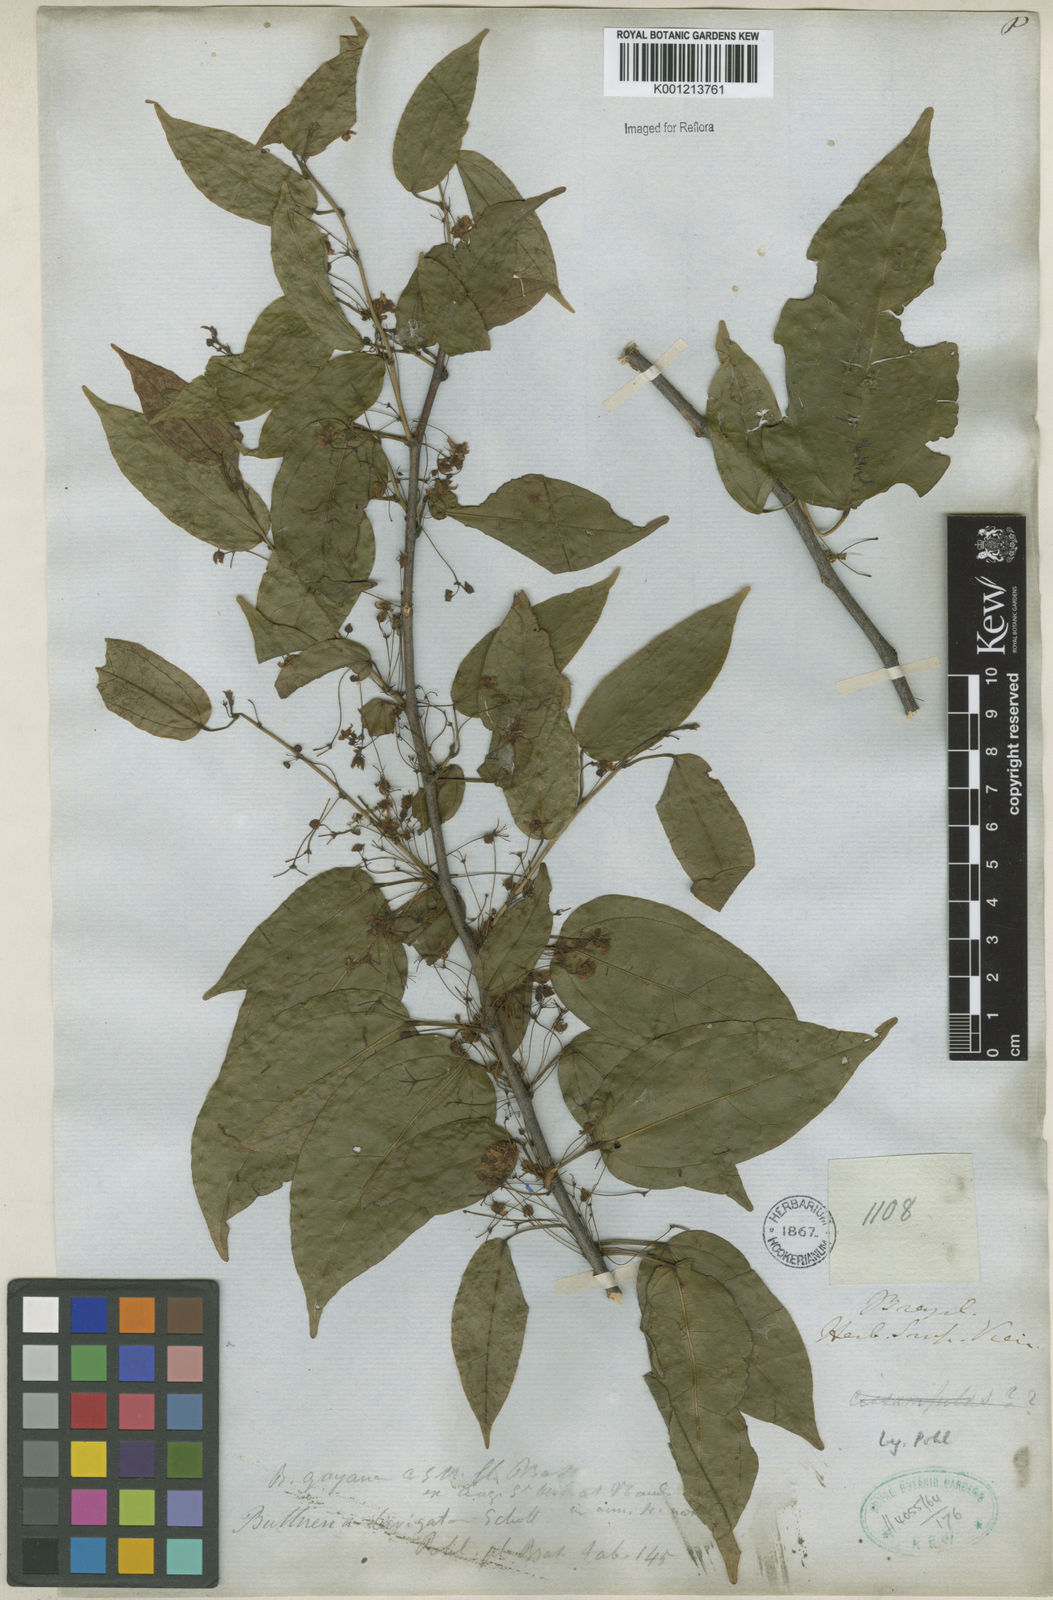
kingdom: Plantae
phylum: Tracheophyta
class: Magnoliopsida
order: Malvales
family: Malvaceae
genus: Byttneria
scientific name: Byttneria gayana
